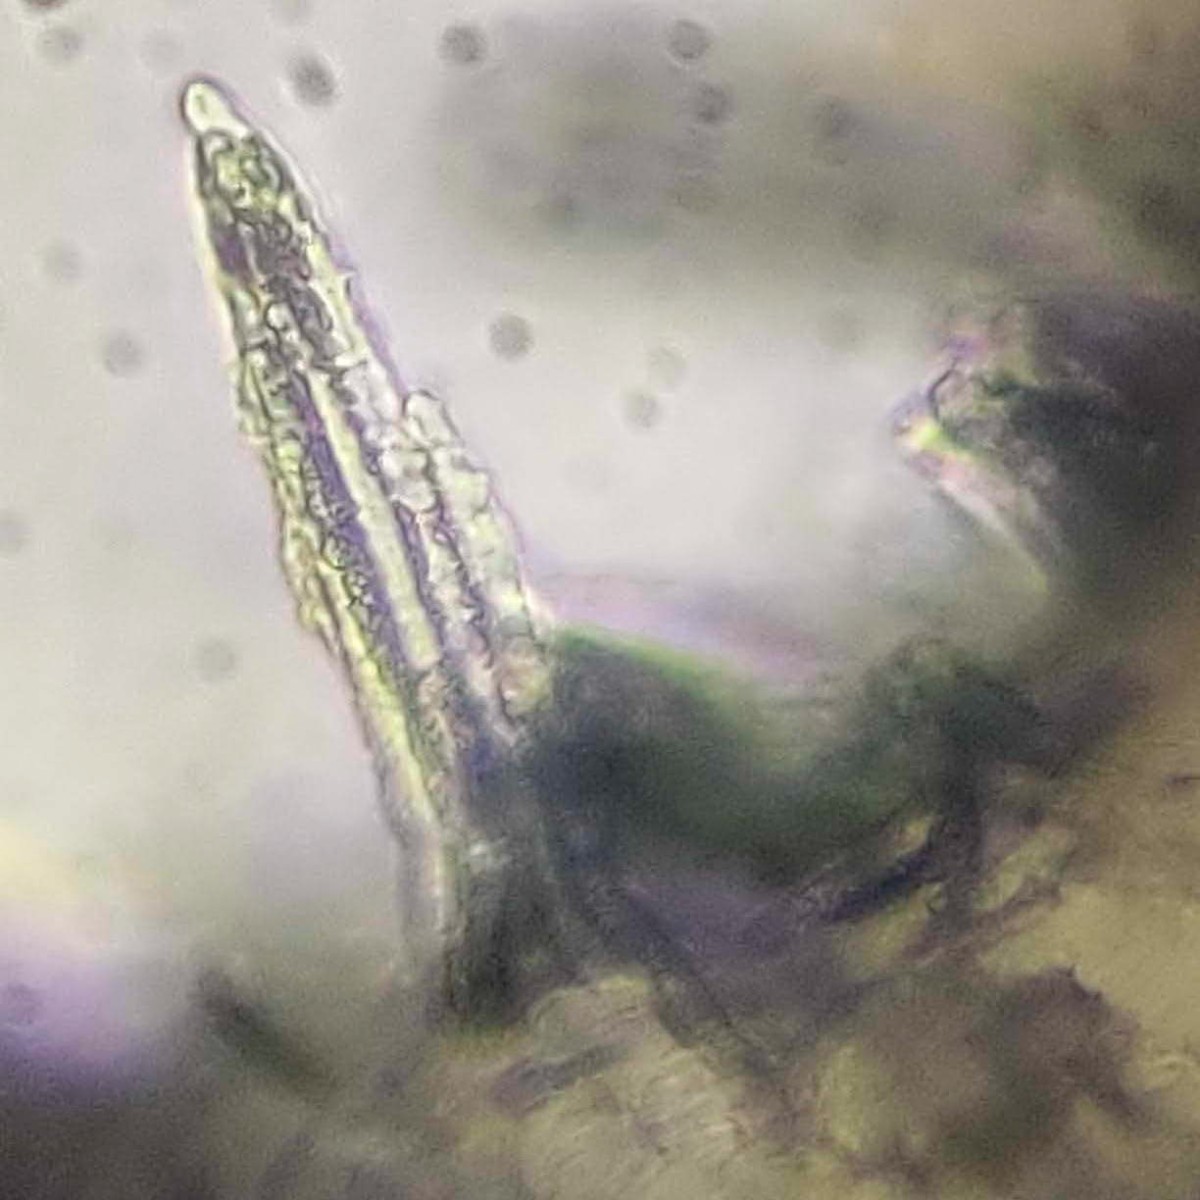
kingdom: Fungi
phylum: Ascomycota
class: Leotiomycetes
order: Helotiales
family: Lachnaceae
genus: Lachnum
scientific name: Lachnum clavigerum
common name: krystal-frynseskive
